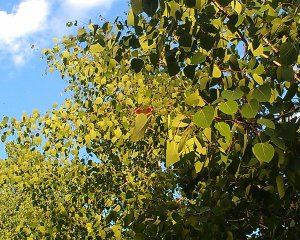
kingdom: Animalia
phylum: Arthropoda
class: Insecta
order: Lepidoptera
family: Nymphalidae
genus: Vanessa
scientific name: Vanessa atalanta
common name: Red Admiral
